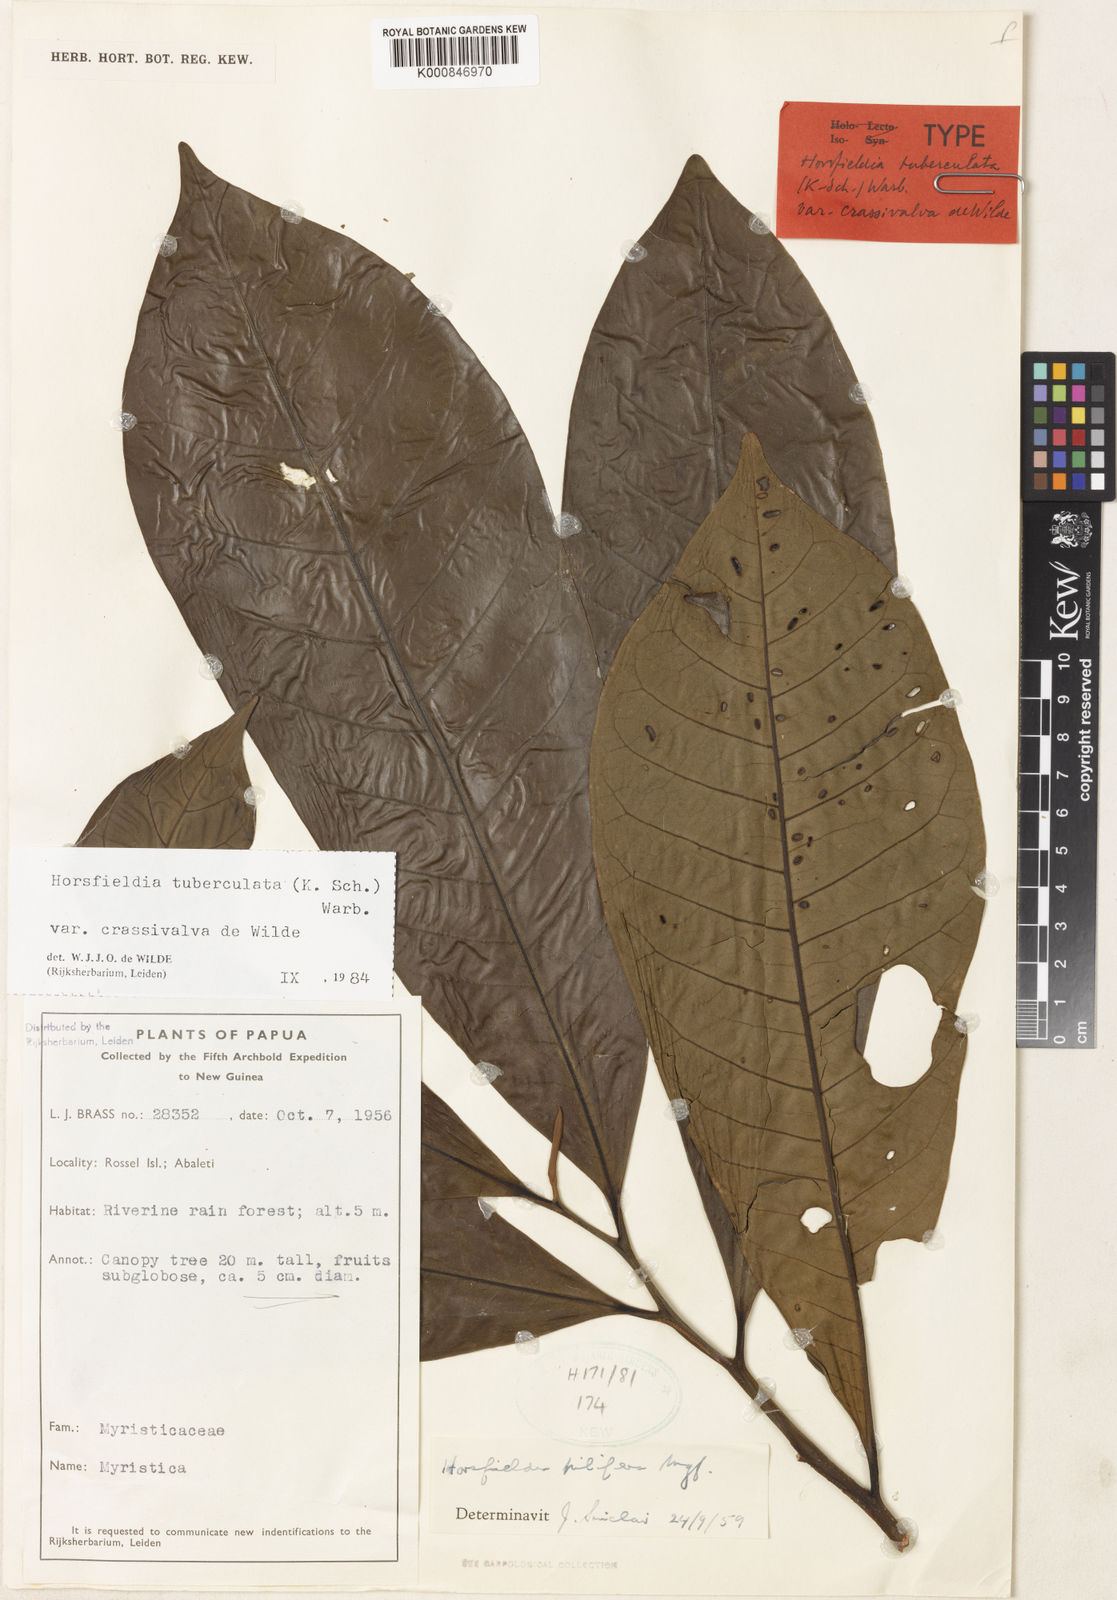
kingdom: Plantae
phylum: Tracheophyta
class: Magnoliopsida
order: Magnoliales
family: Myristicaceae
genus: Horsfieldia
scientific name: Horsfieldia tuberculata
